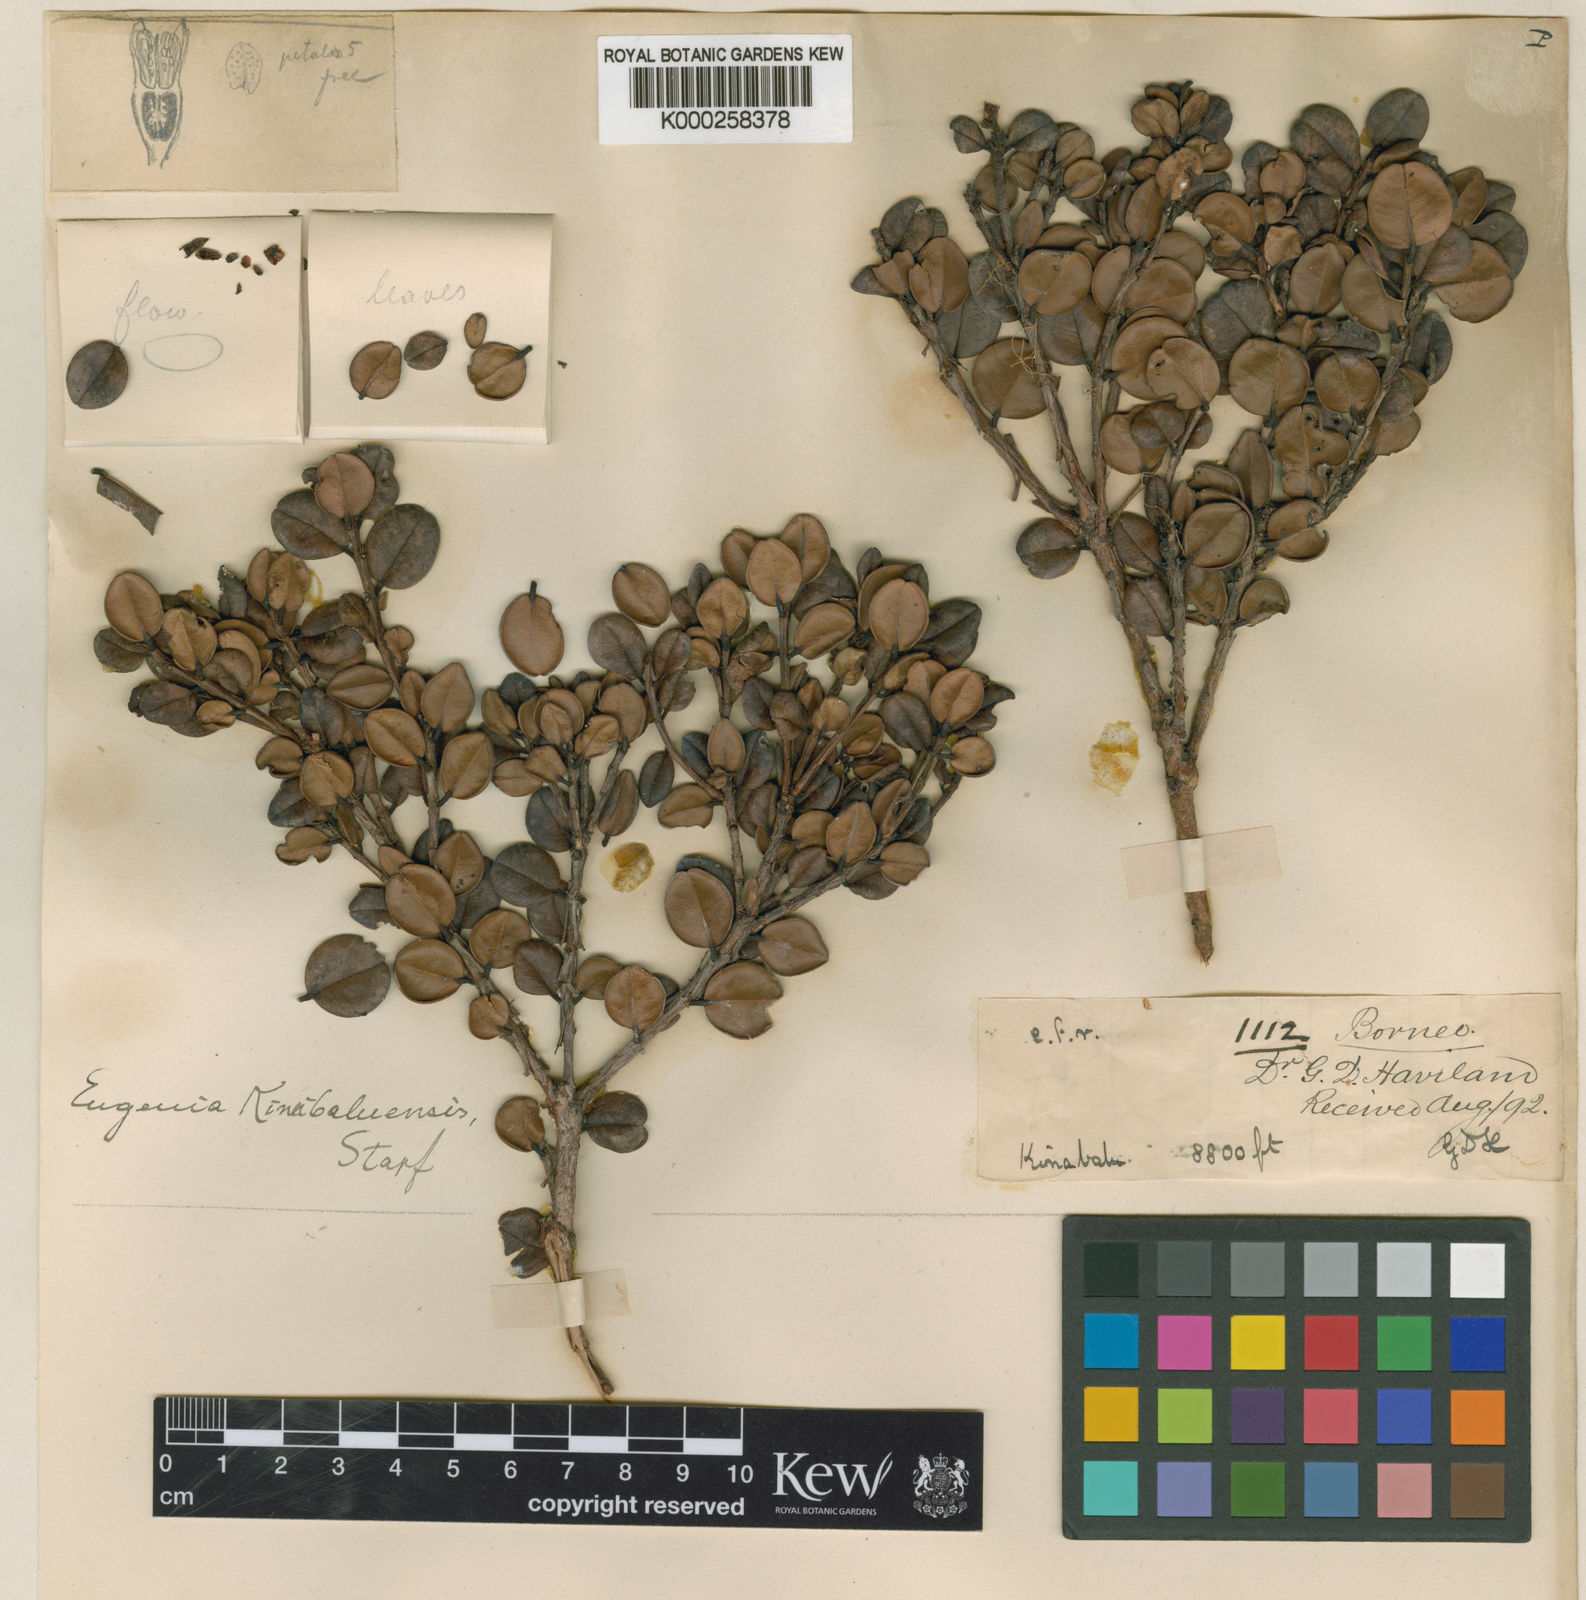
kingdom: Plantae
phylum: Tracheophyta
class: Magnoliopsida
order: Myrtales
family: Myrtaceae
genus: Syzygium
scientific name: Syzygium kinabaluense
